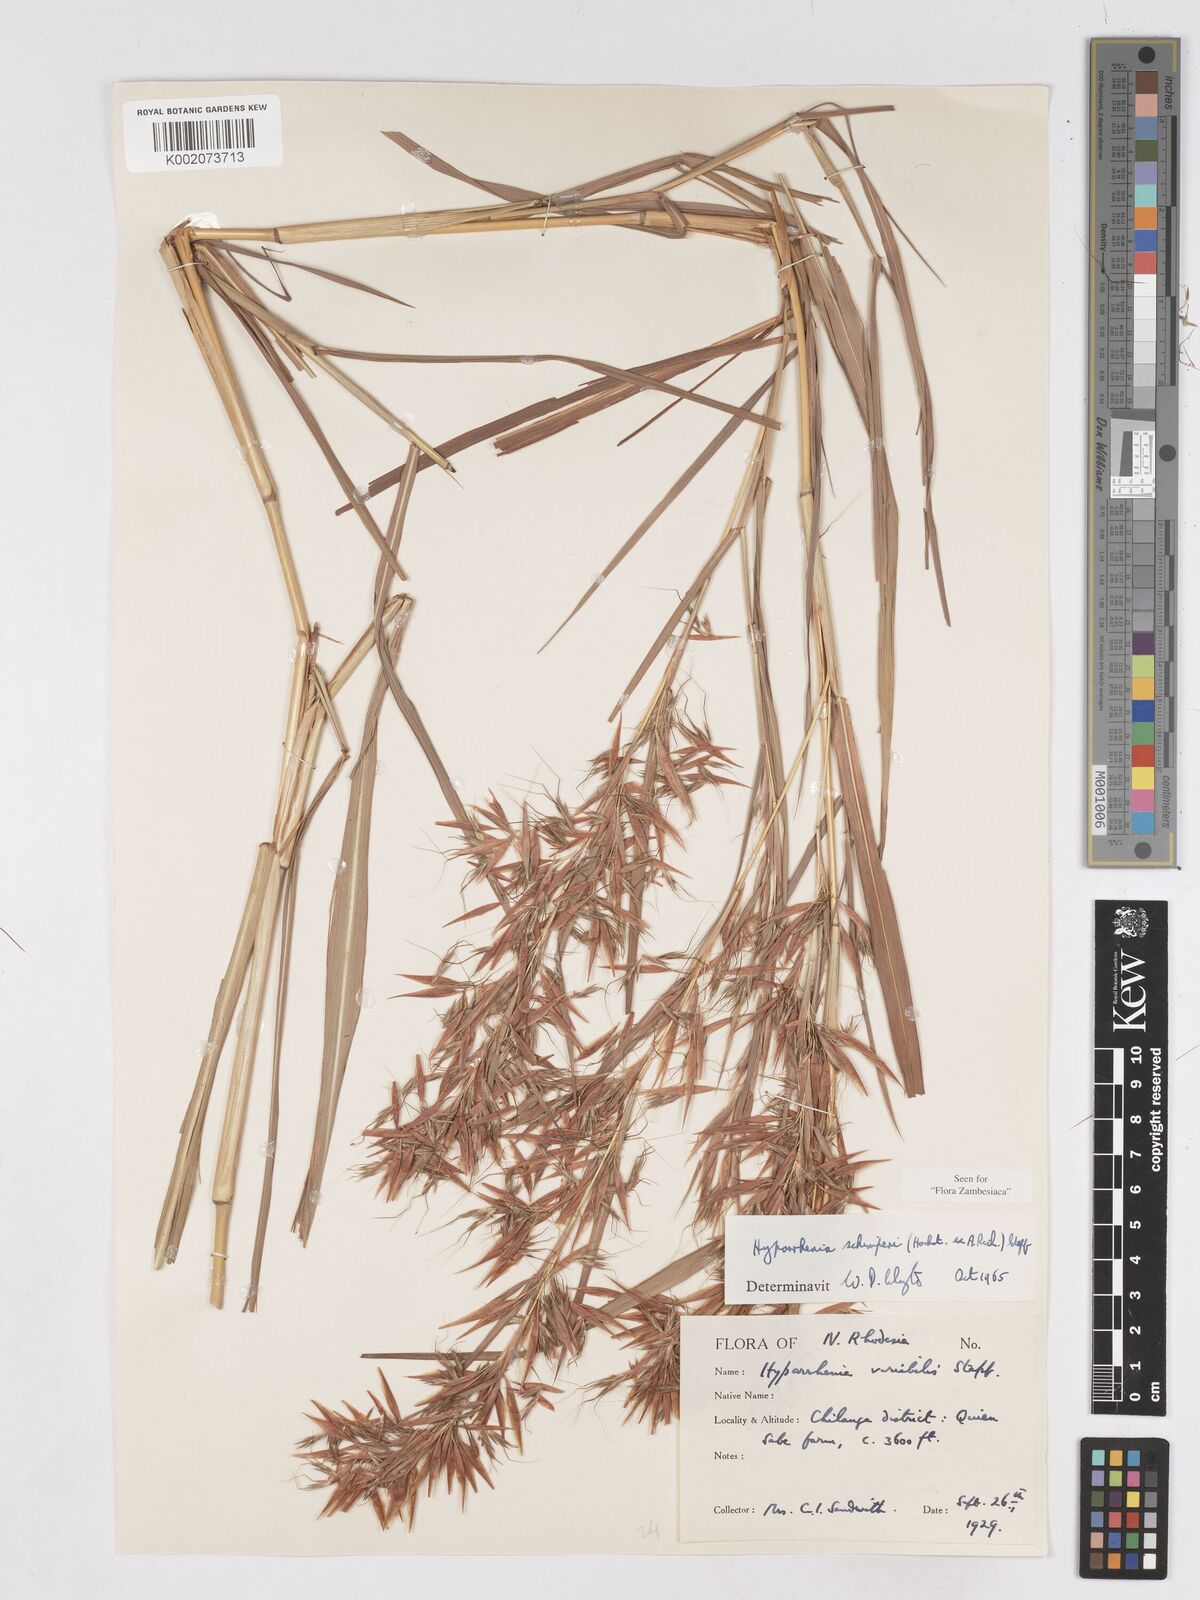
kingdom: Plantae
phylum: Tracheophyta
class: Liliopsida
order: Poales
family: Poaceae
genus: Hyparrhenia
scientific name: Hyparrhenia schimperi
